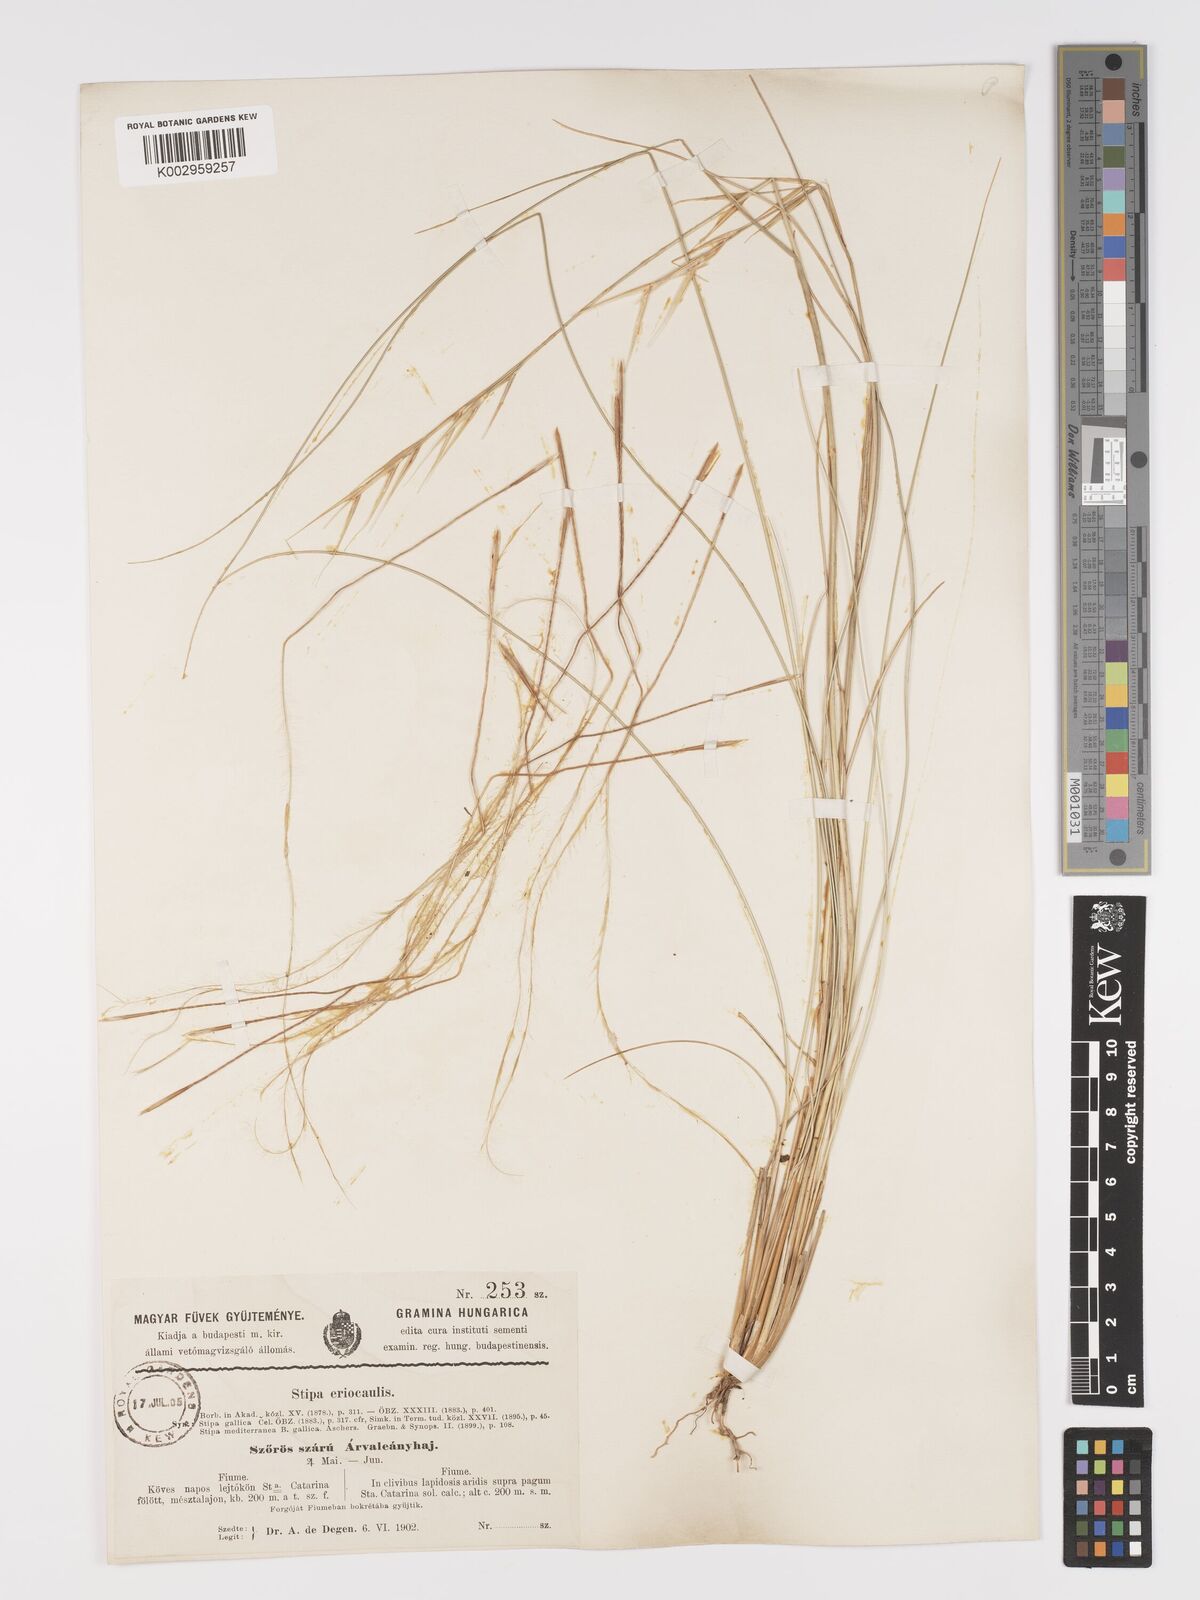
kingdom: Plantae
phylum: Tracheophyta
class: Liliopsida
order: Poales
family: Poaceae
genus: Stipa
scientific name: Stipa pulcherrima
